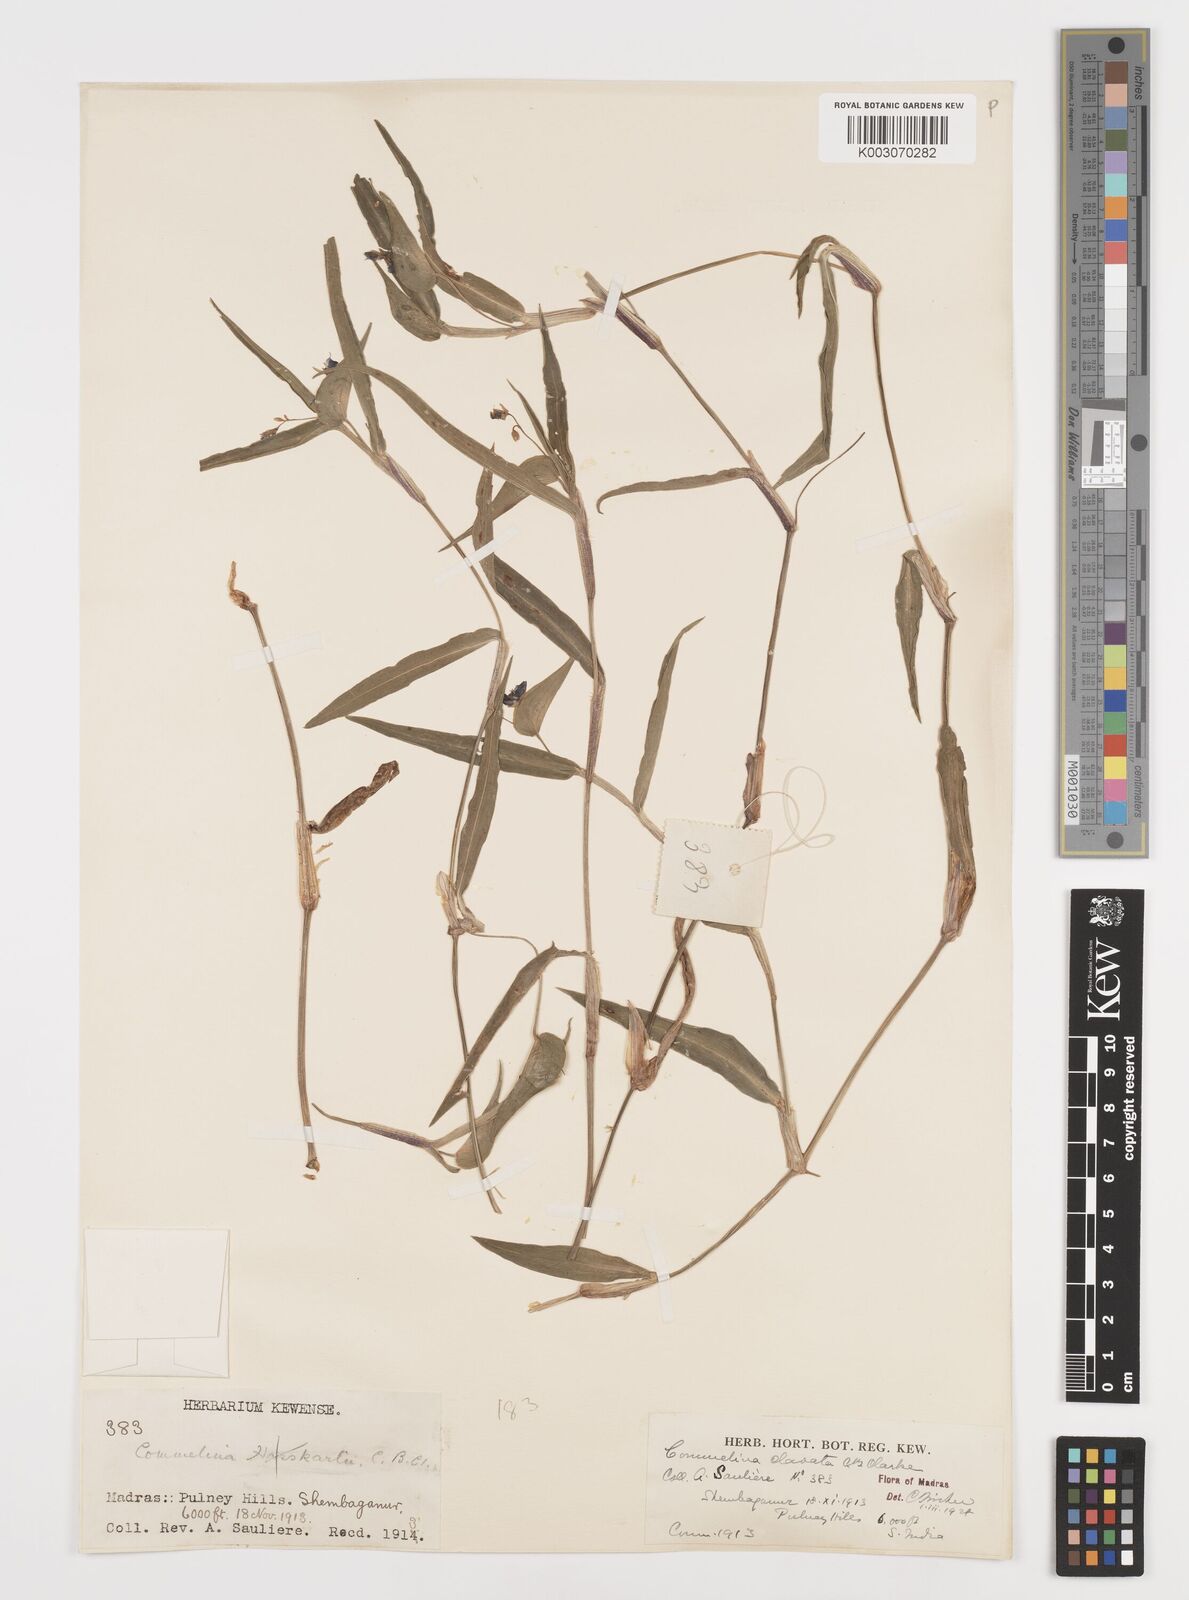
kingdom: Plantae
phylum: Tracheophyta
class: Liliopsida
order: Commelinales
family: Commelinaceae
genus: Commelina
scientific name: Commelina clavata
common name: Willow leaved dayflower
